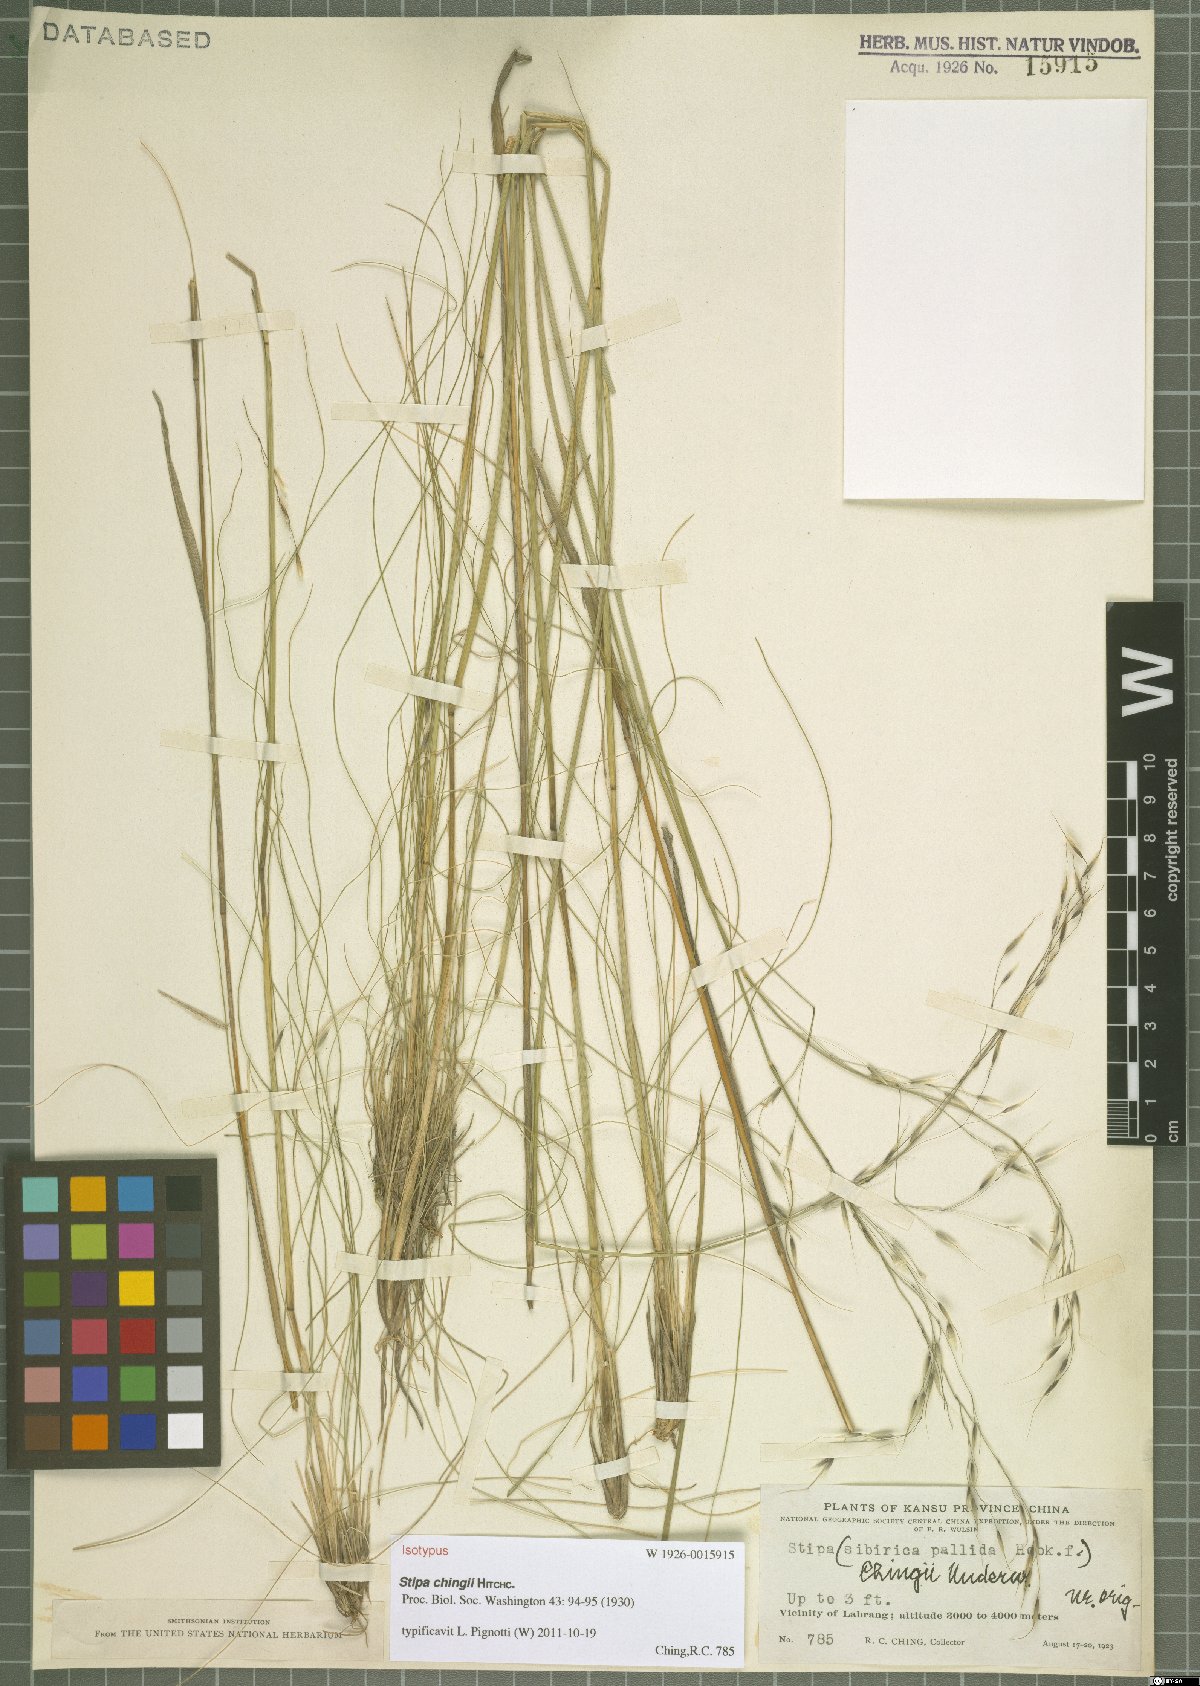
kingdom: Plantae
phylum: Tracheophyta
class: Liliopsida
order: Poales
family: Poaceae
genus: Stipa
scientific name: Stipa chingii
